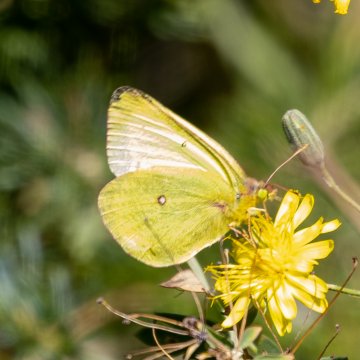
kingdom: Animalia
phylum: Arthropoda
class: Insecta
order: Lepidoptera
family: Pieridae
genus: Colias
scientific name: Colias occidentalis
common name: Western Sulphur
